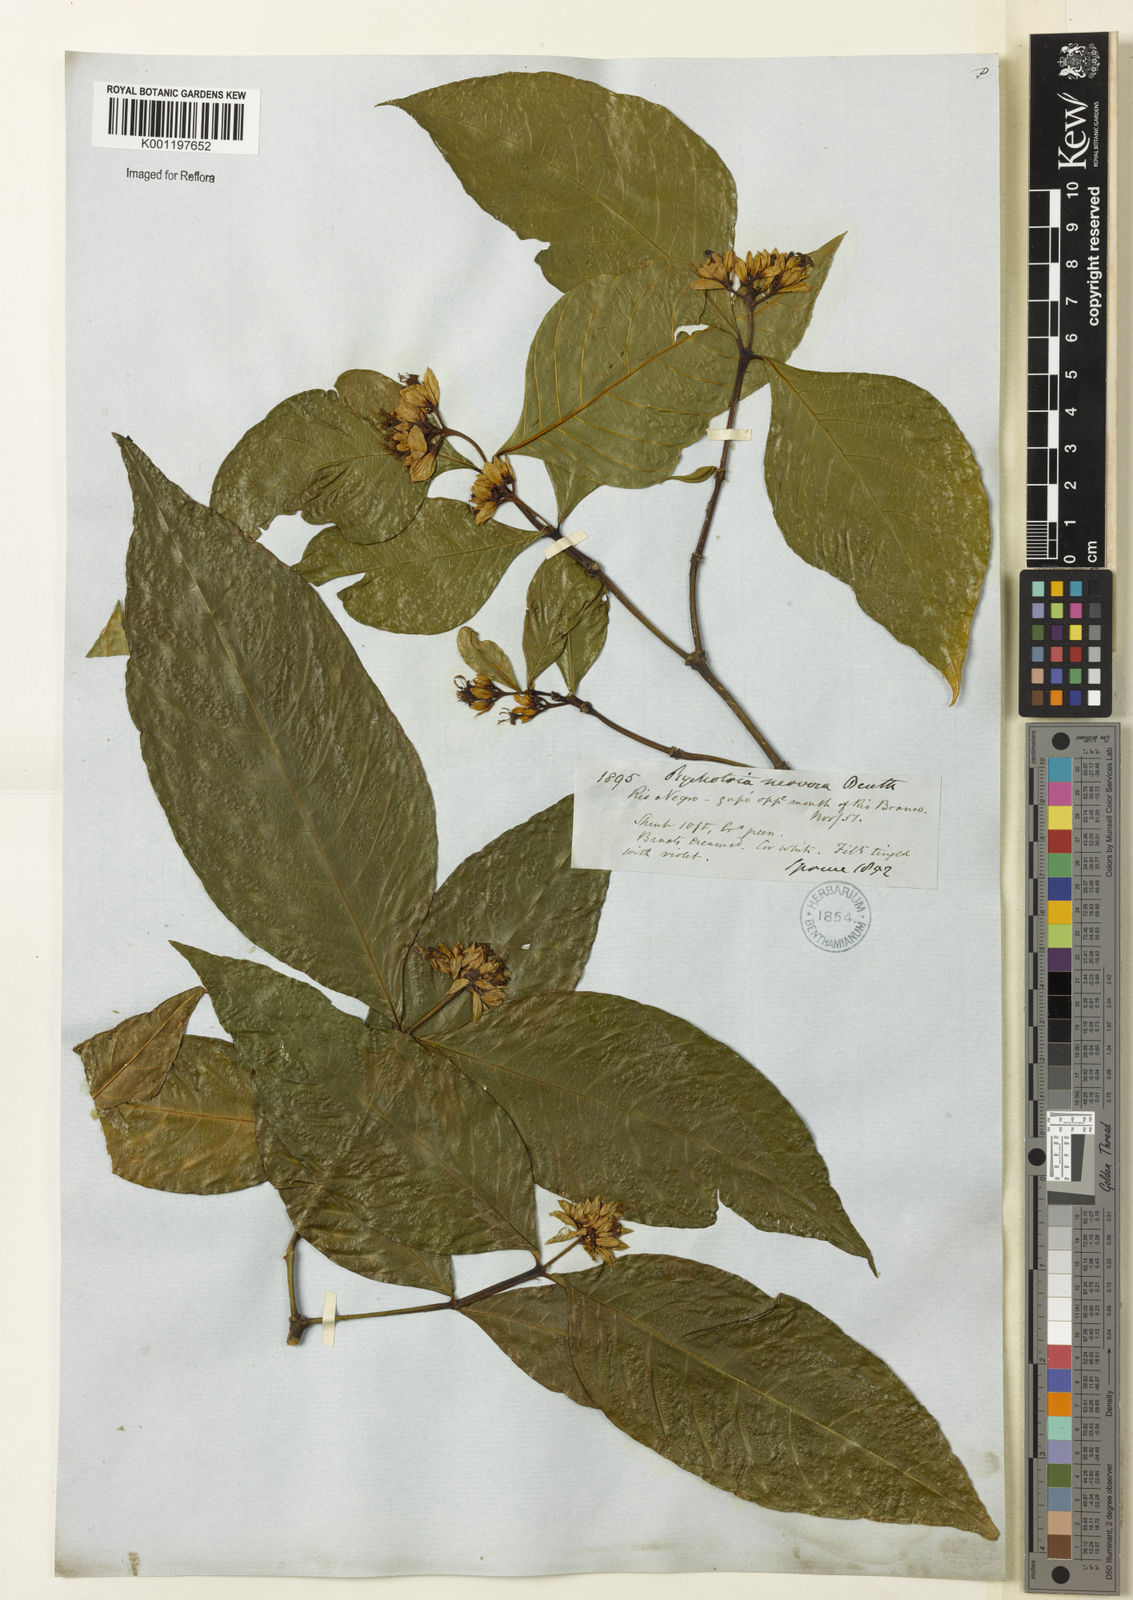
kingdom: Plantae
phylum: Tracheophyta
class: Magnoliopsida
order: Gentianales
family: Rubiaceae
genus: Palicourea
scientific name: Palicourea justiciifolia
